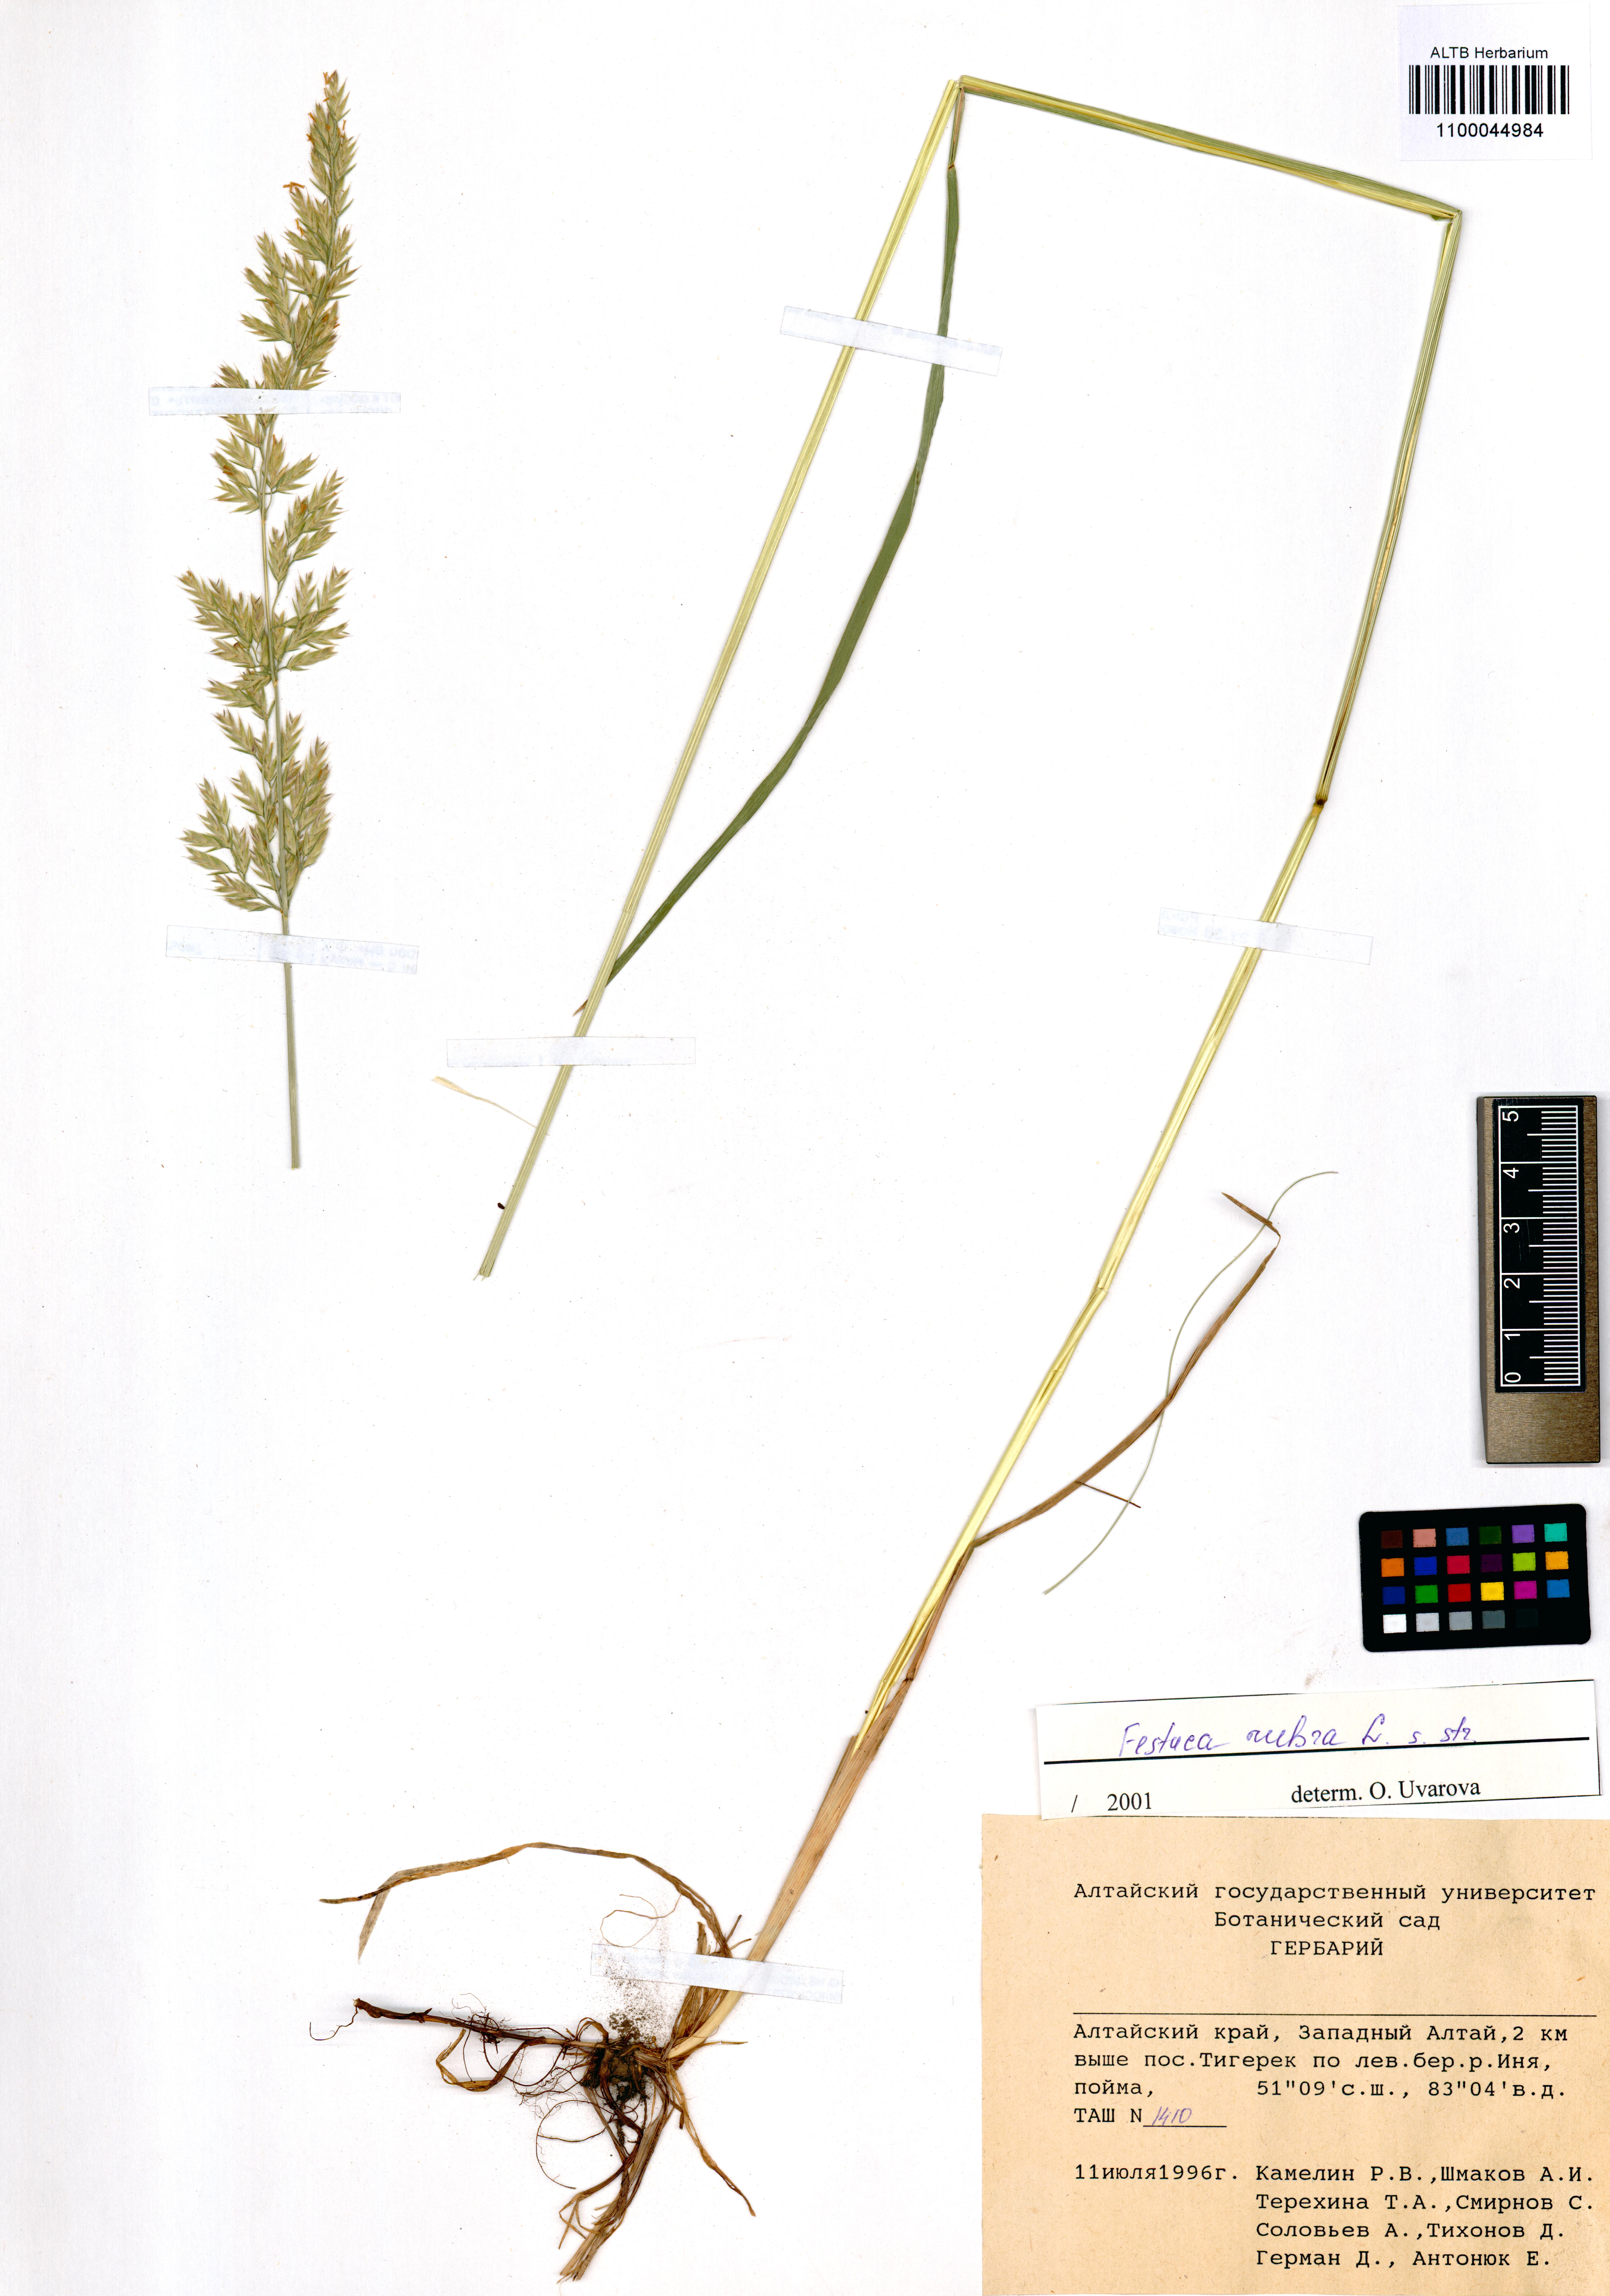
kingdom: Plantae
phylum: Tracheophyta
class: Liliopsida
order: Poales
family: Poaceae
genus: Festuca
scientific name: Festuca rubra
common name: Red fescue
